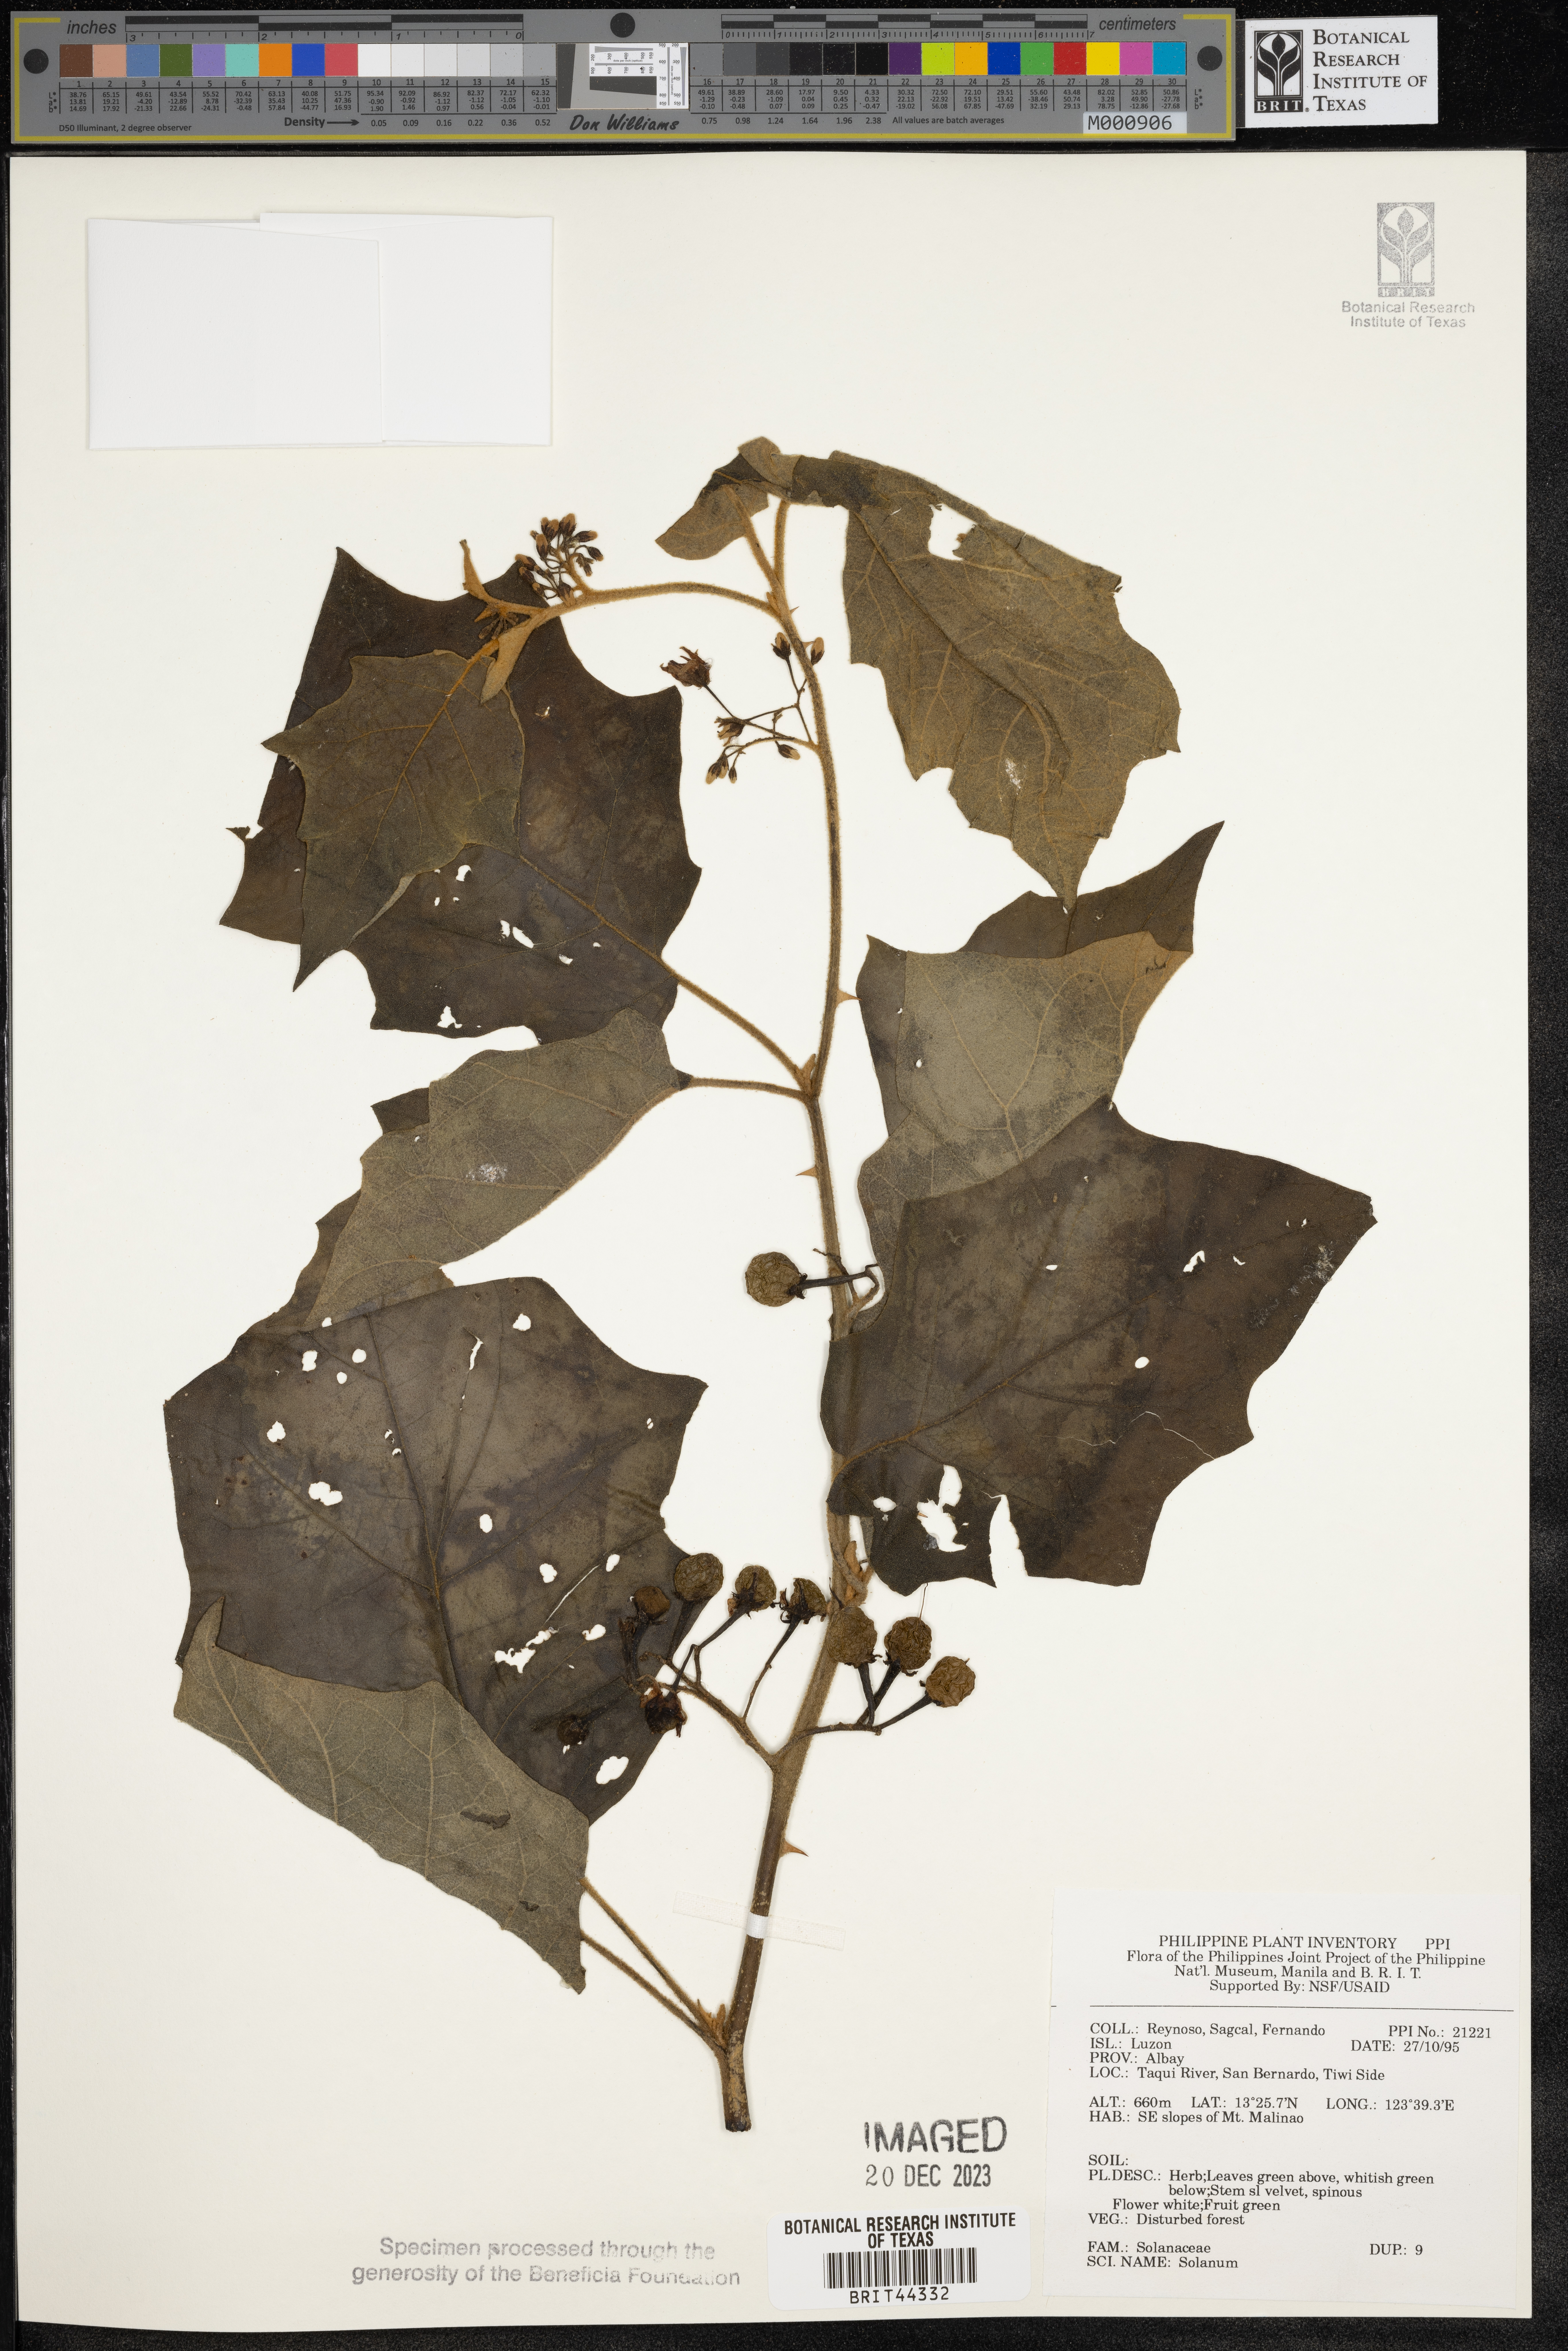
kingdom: Plantae
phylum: Tracheophyta
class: Magnoliopsida
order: Solanales
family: Solanaceae
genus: Solanum
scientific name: Solanum
